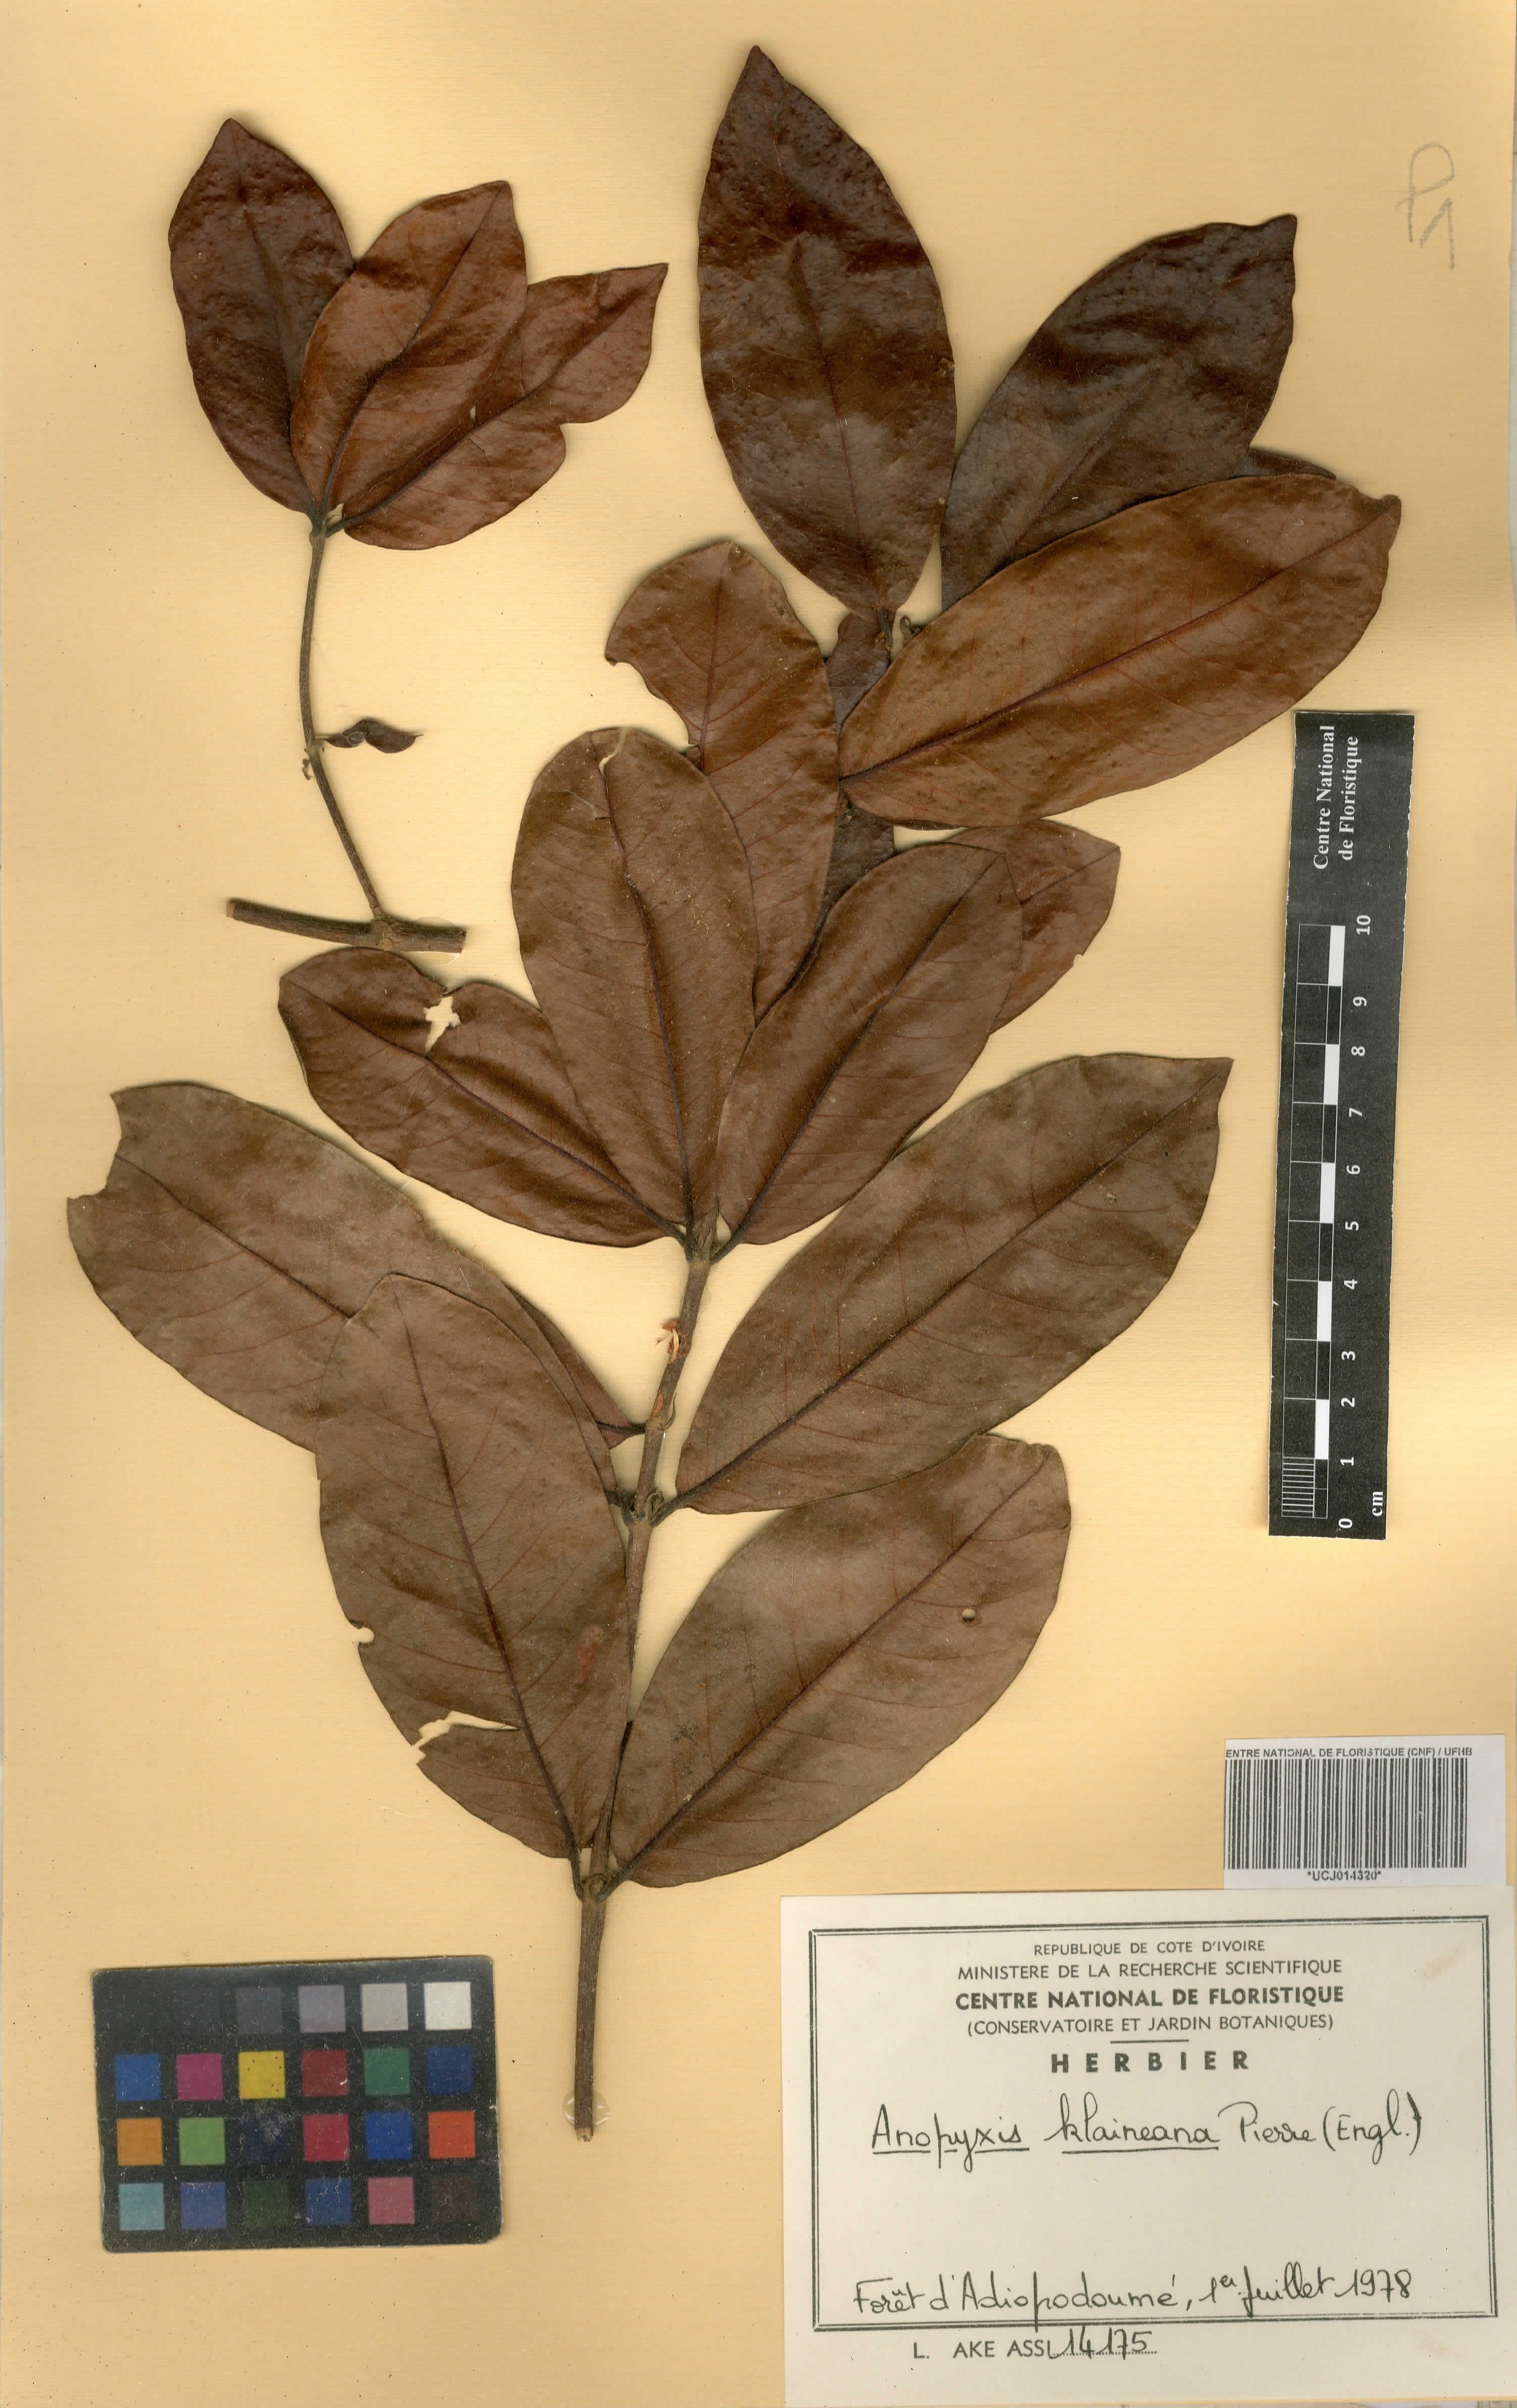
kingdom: Plantae
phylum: Tracheophyta
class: Magnoliopsida
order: Malpighiales
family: Rhizophoraceae
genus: Anopyxis
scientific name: Anopyxis klaineana
